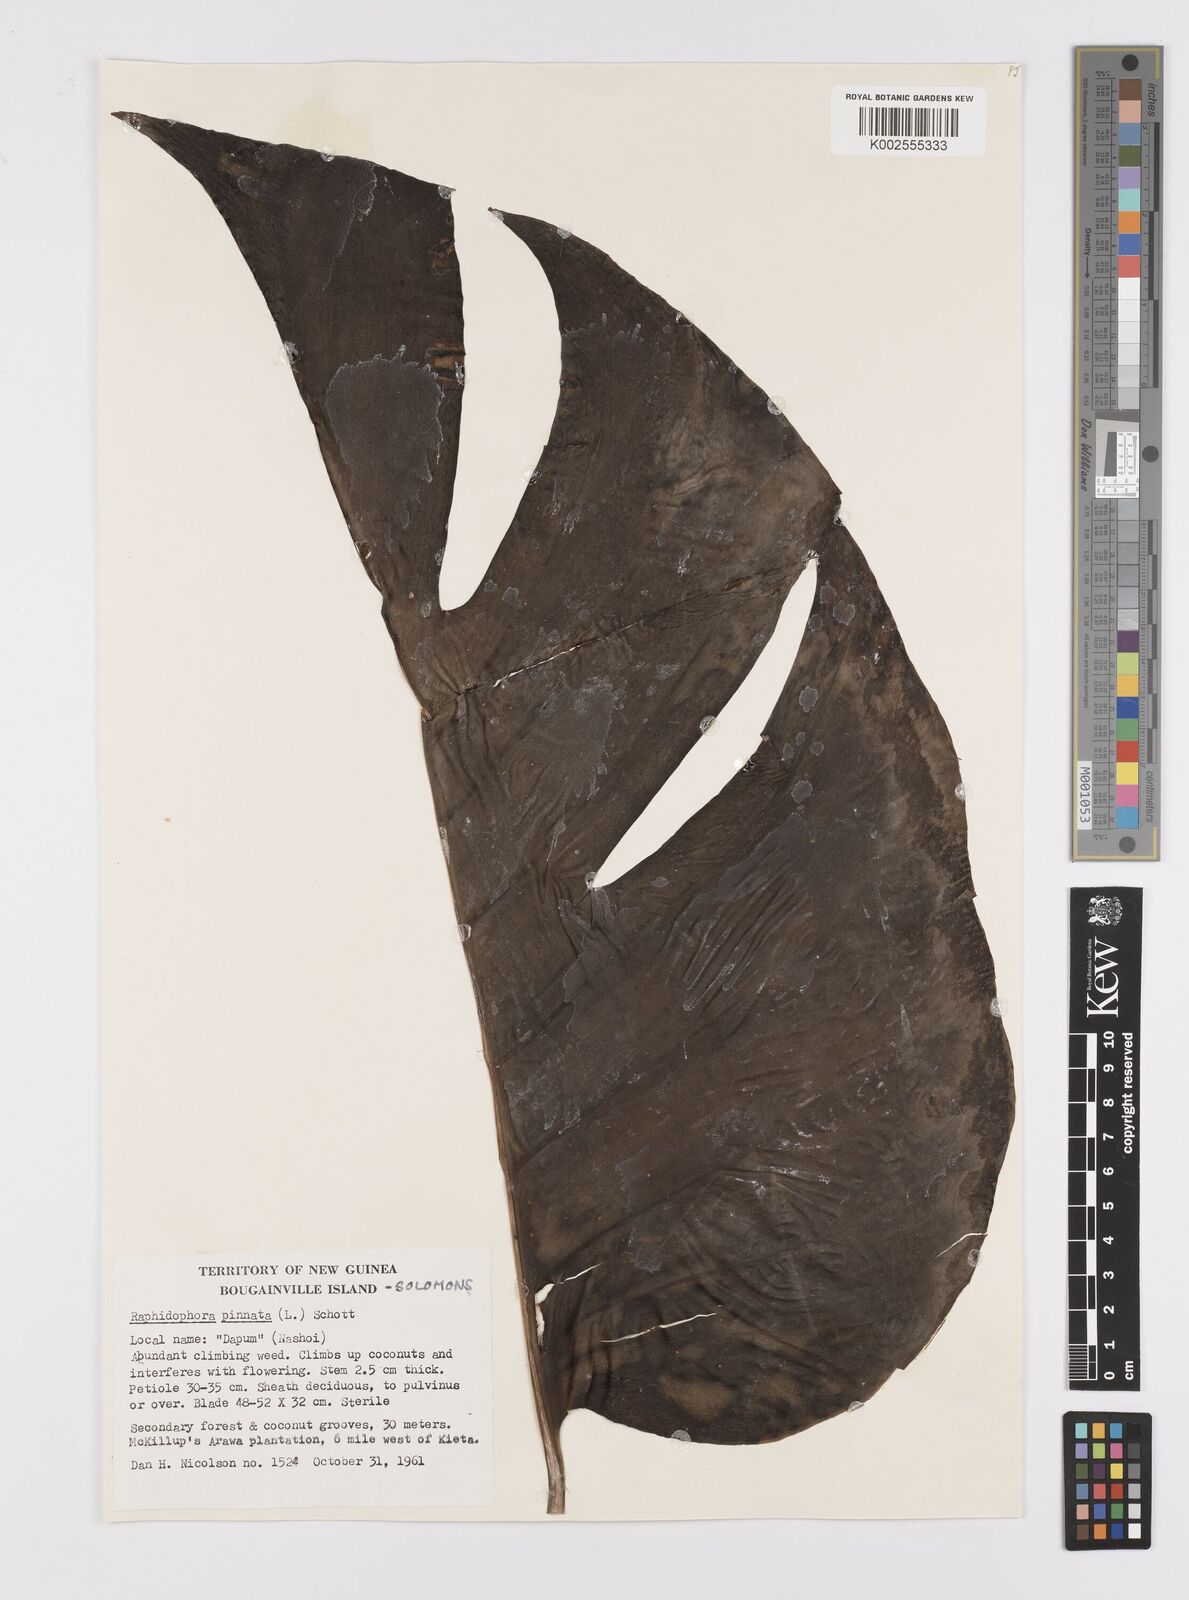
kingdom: Plantae
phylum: Tracheophyta
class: Liliopsida
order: Alismatales
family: Araceae
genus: Epipremnum
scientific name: Epipremnum pinnatum
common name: Centipede tongavine
